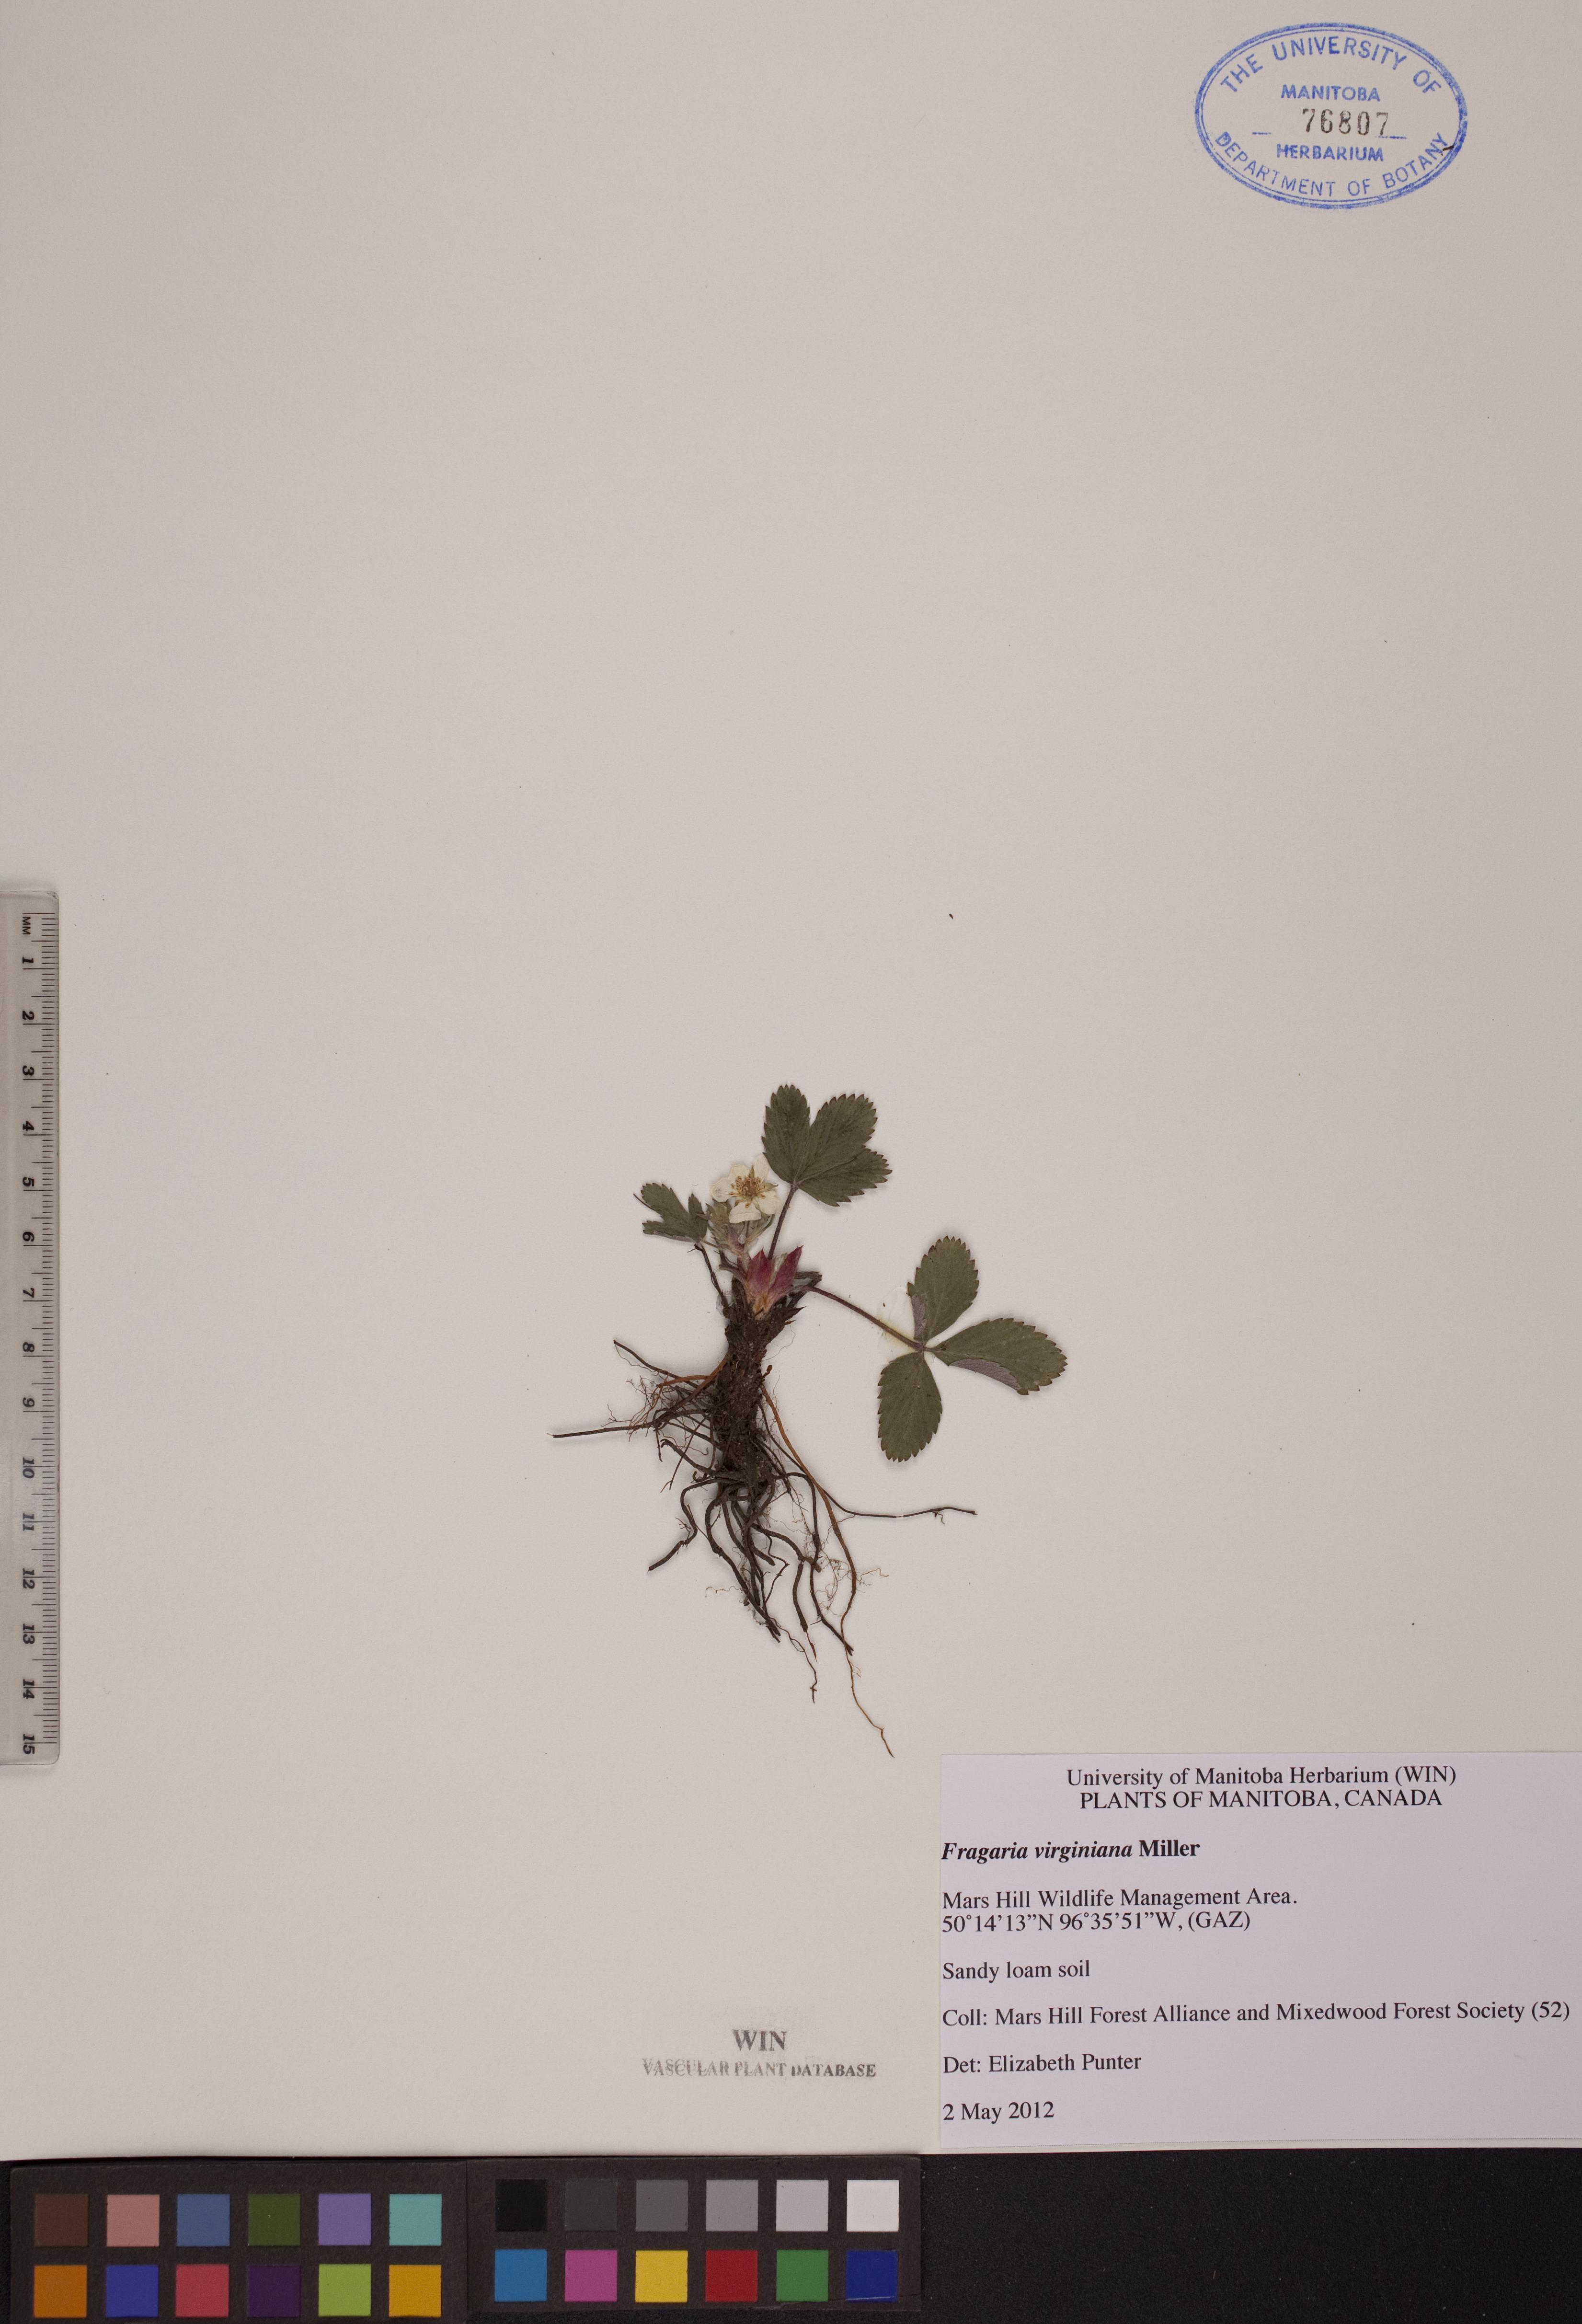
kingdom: Plantae
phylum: Tracheophyta
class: Magnoliopsida
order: Rosales
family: Rosaceae
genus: Fragaria
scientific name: Fragaria virginiana
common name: Thickleaved wild strawberry
